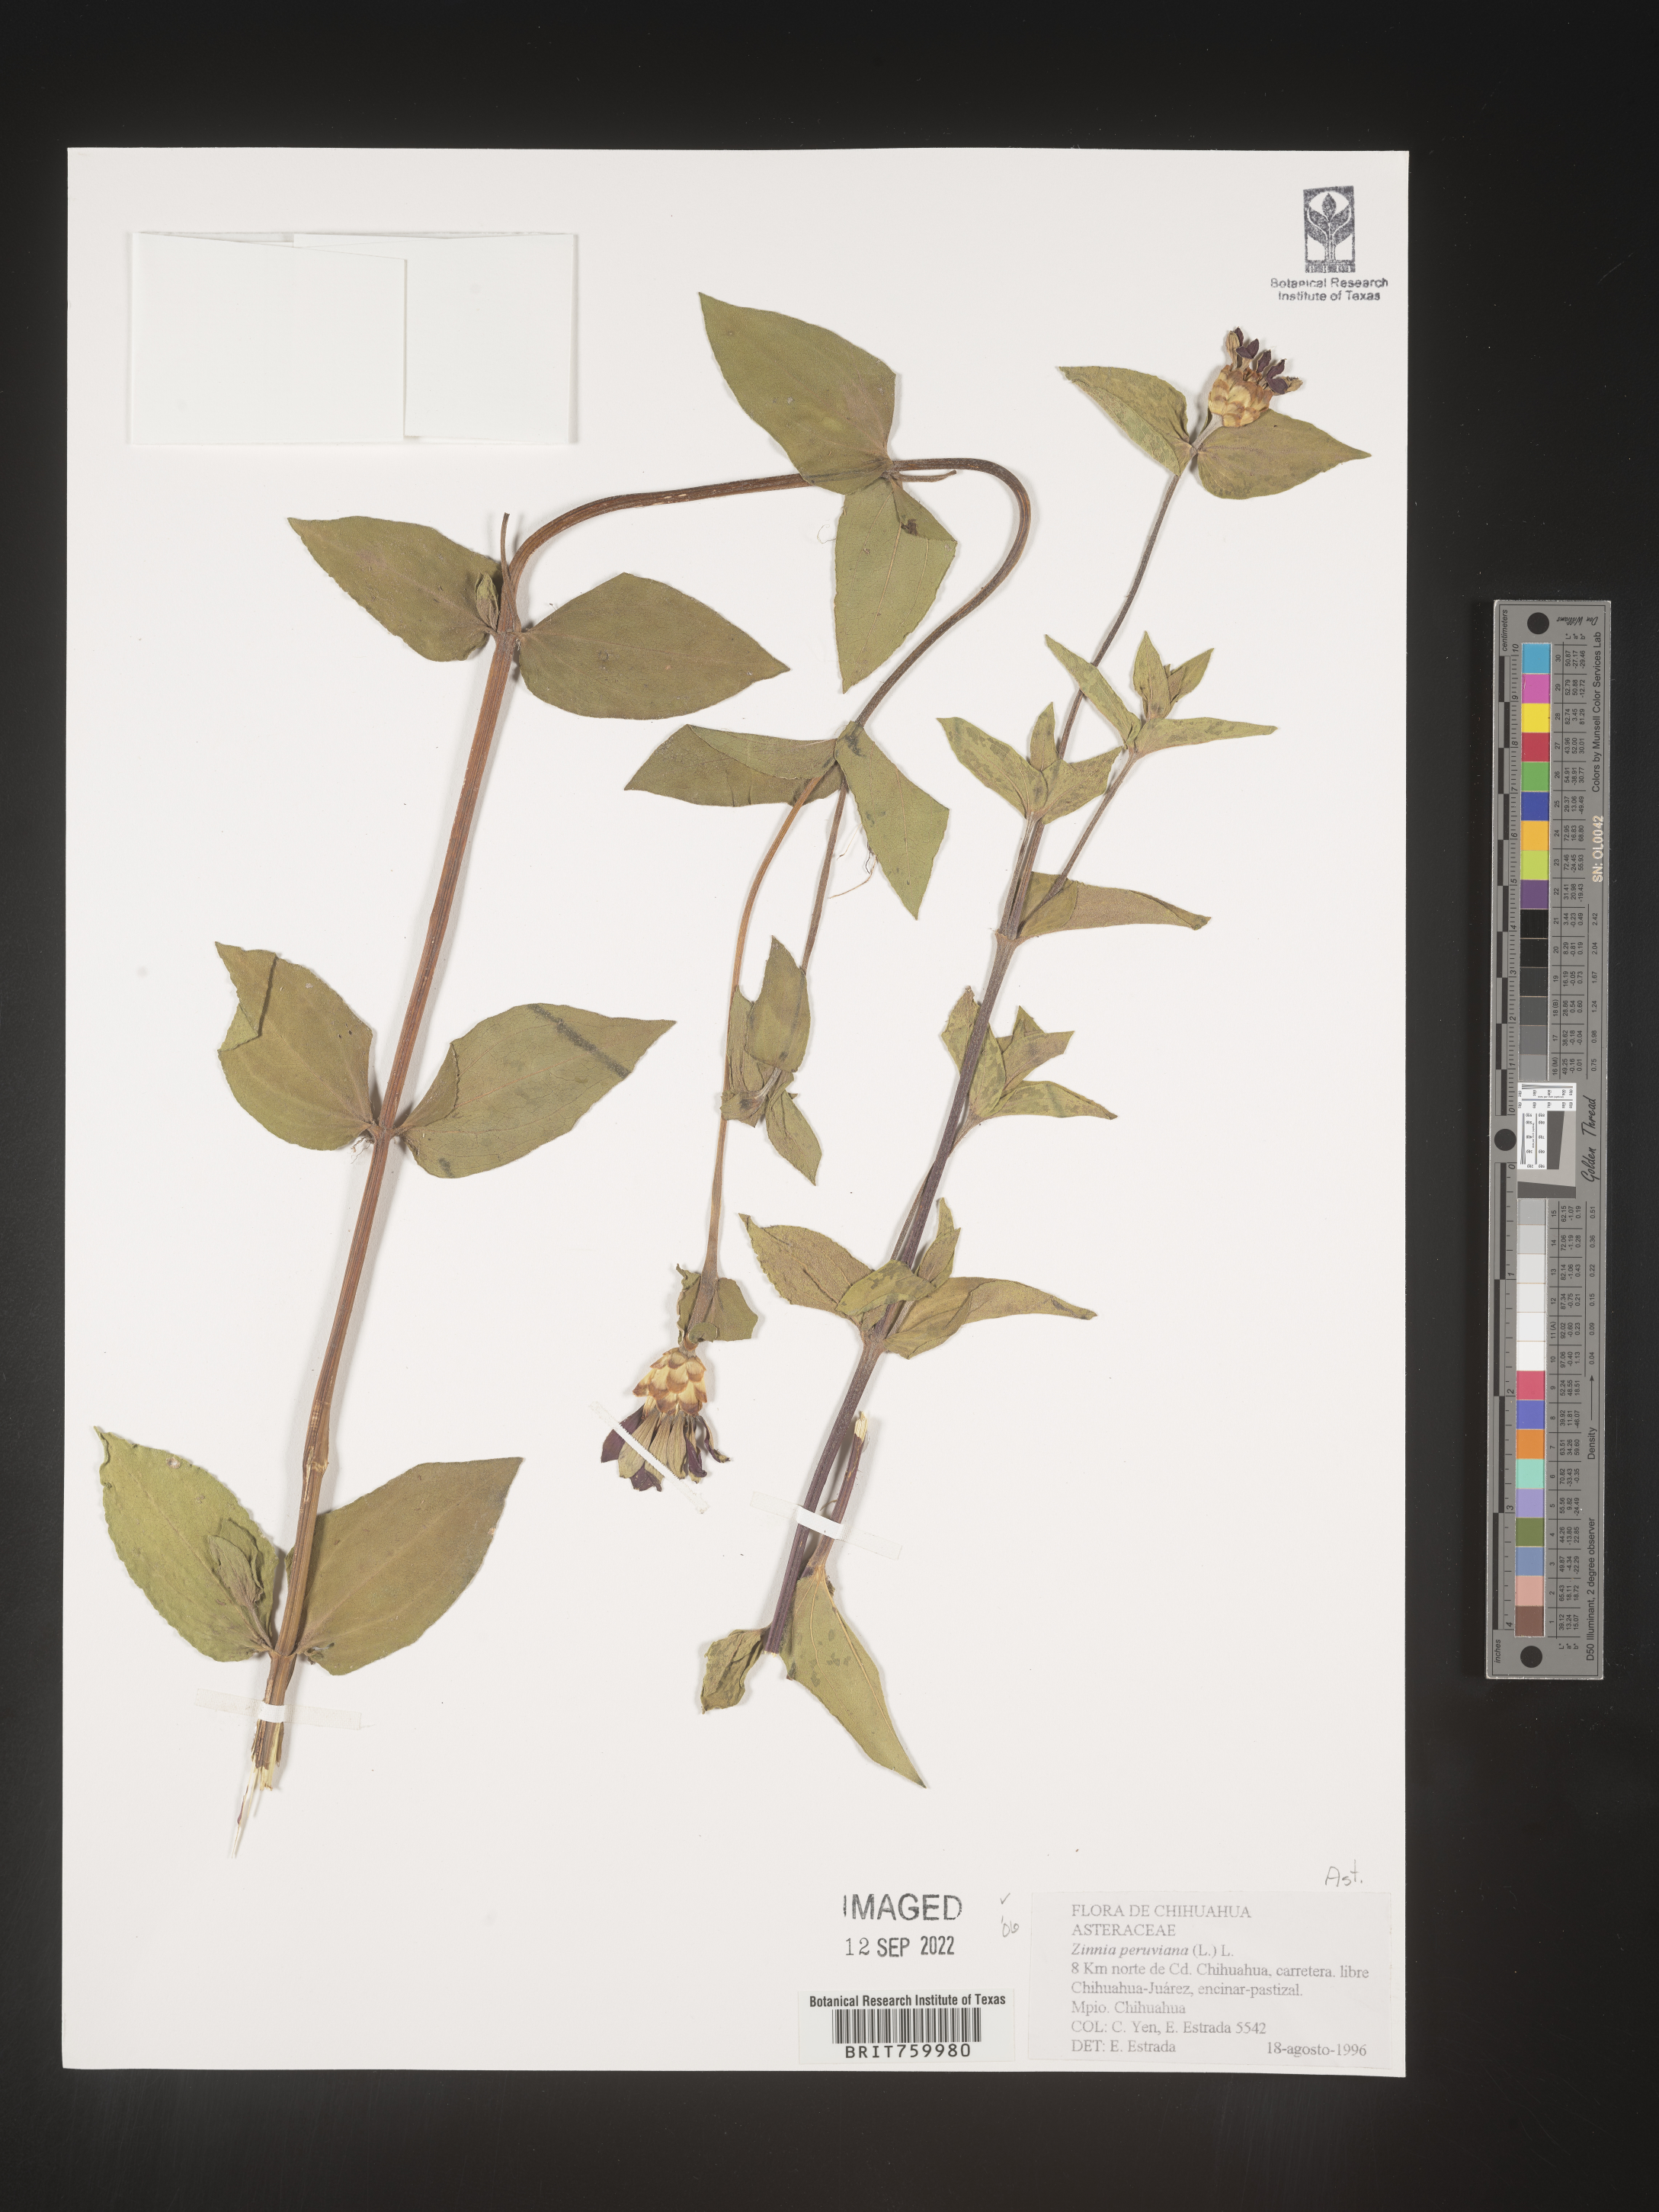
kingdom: Plantae
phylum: Tracheophyta
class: Magnoliopsida
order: Asterales
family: Asteraceae
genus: Zinnia
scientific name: Zinnia
